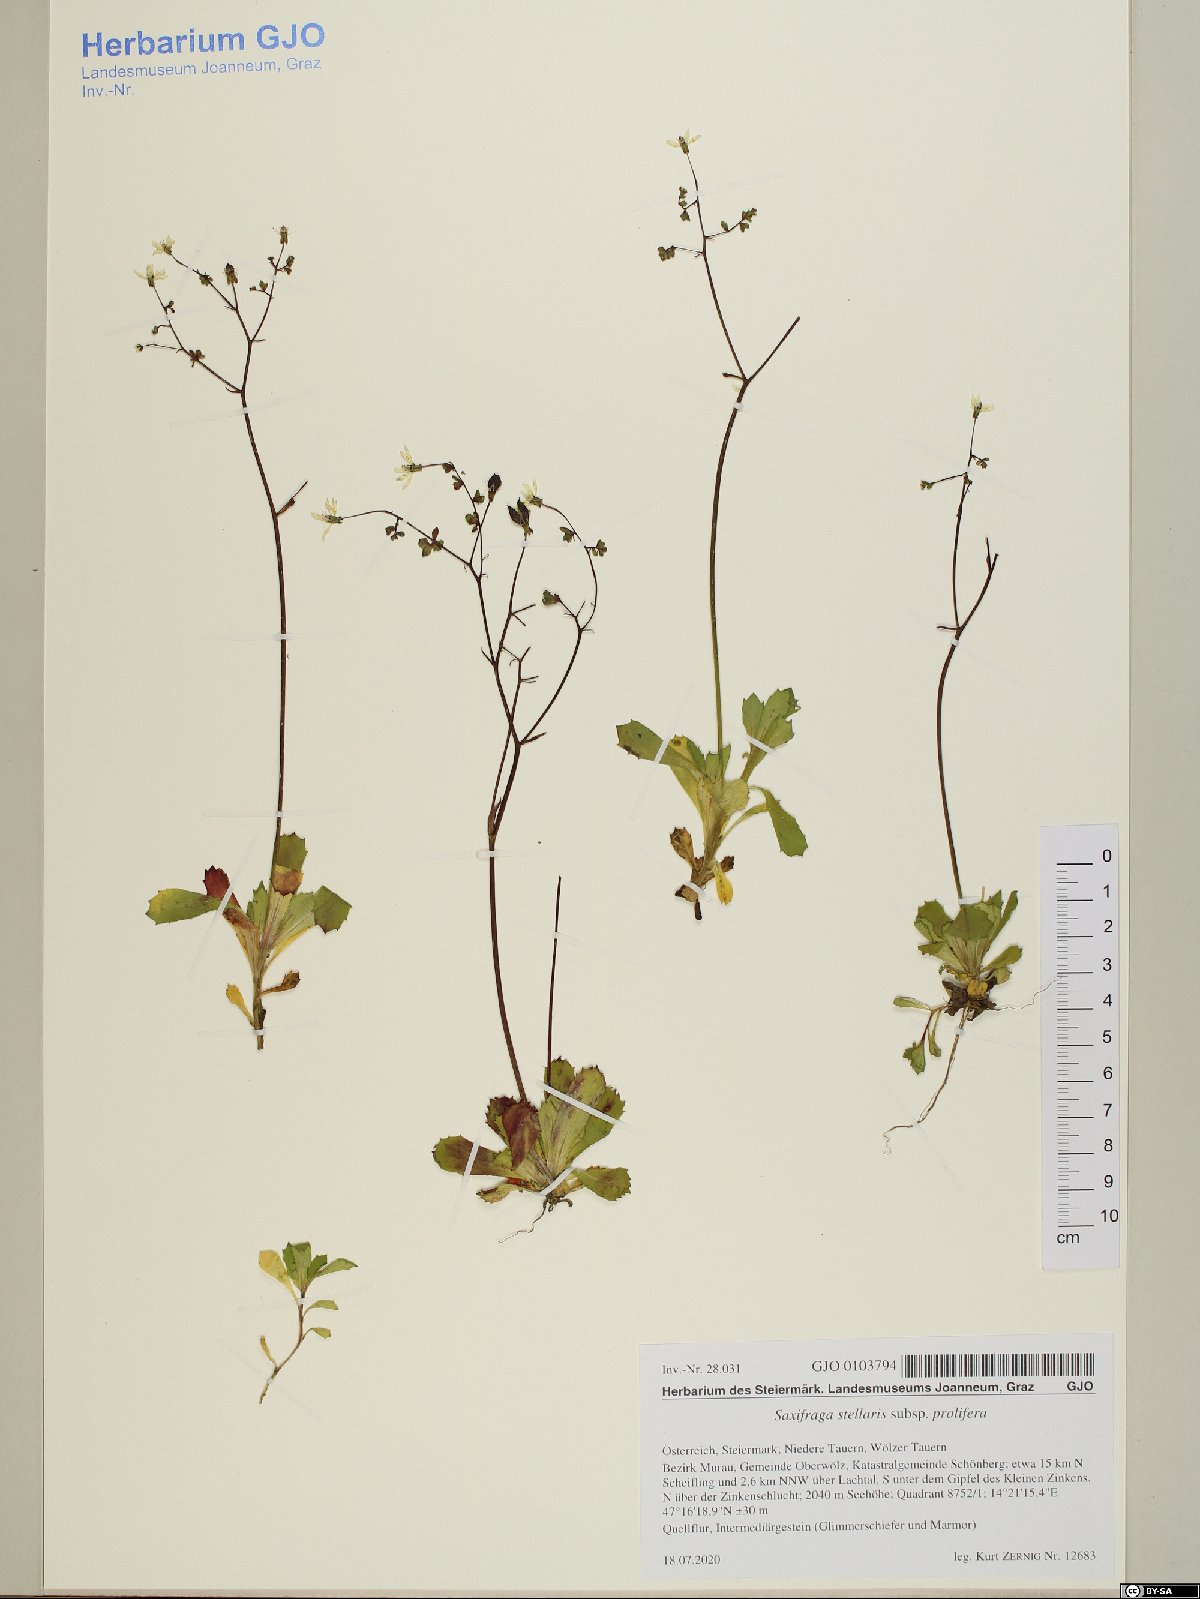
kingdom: Plantae
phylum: Tracheophyta
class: Magnoliopsida
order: Saxifragales
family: Saxifragaceae
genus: Micranthes
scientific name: Micranthes stellaris
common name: Starry saxifrage
